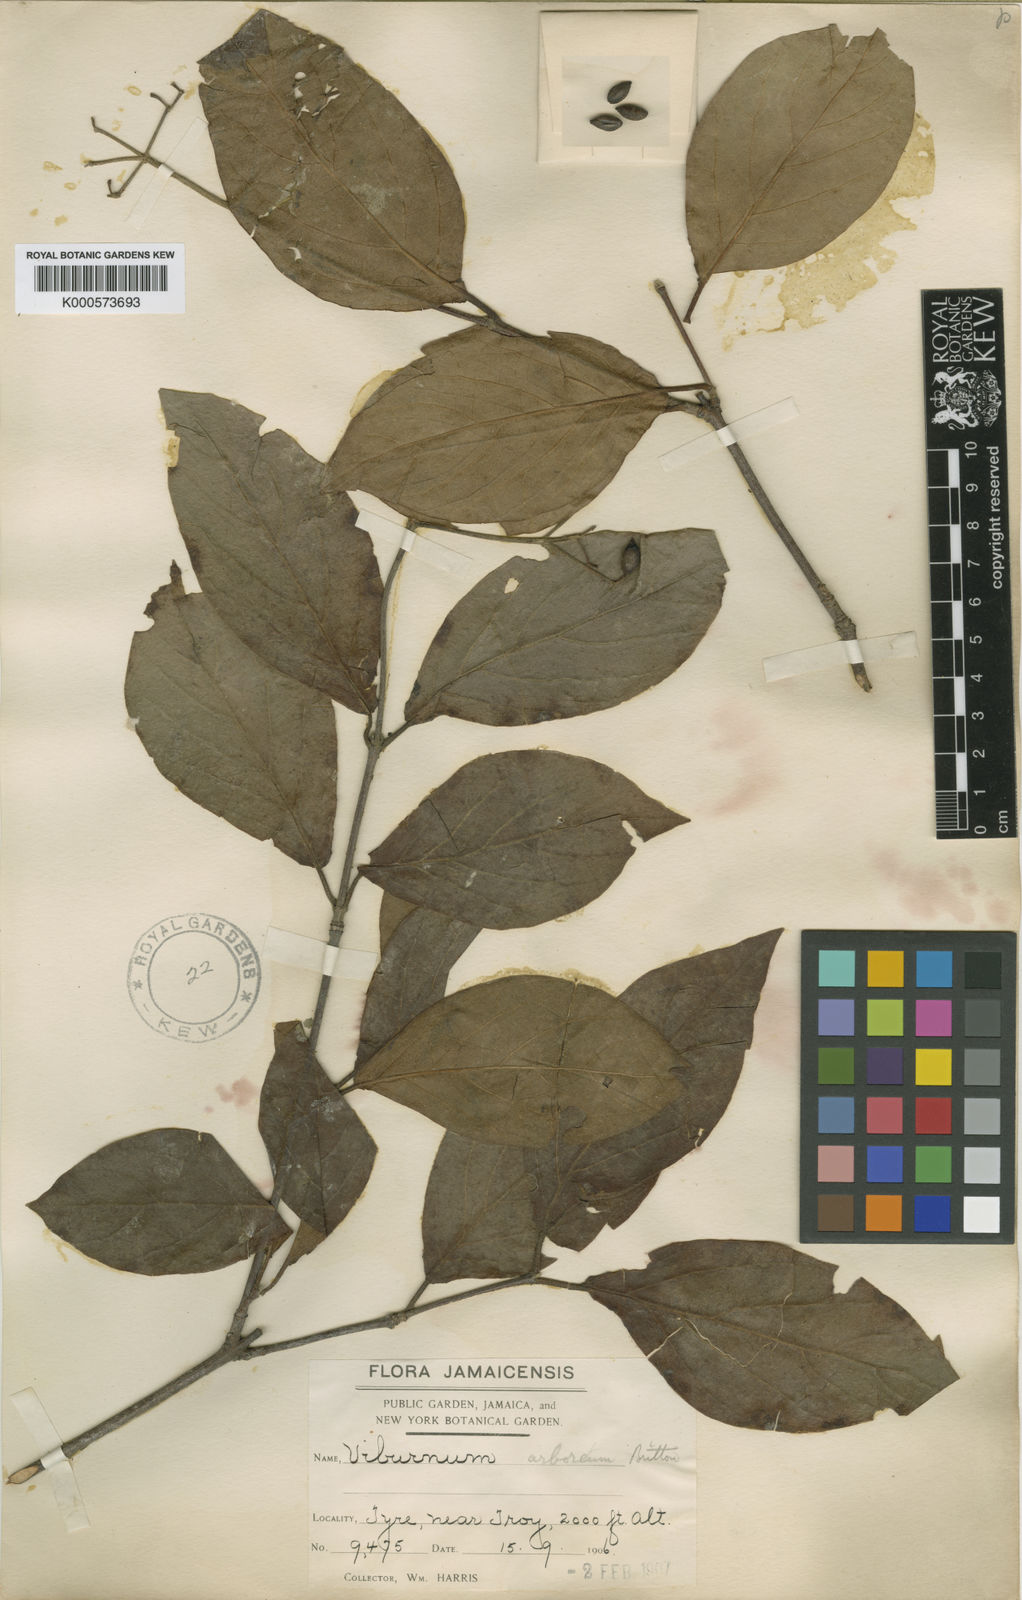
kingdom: Plantae
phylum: Tracheophyta
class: Magnoliopsida
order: Dipsacales
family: Viburnaceae
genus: Viburnum
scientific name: Viburnum arboreum
